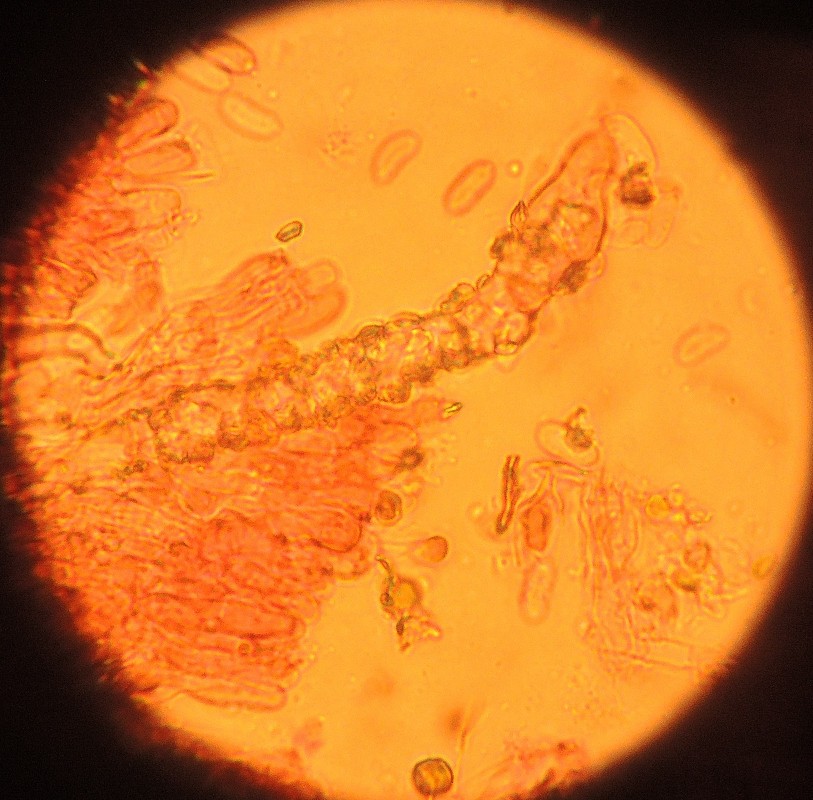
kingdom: Fungi
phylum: Basidiomycota
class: Agaricomycetes
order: Hymenochaetales
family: Rickenellaceae
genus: Odonticium
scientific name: Odonticium septocystidia
